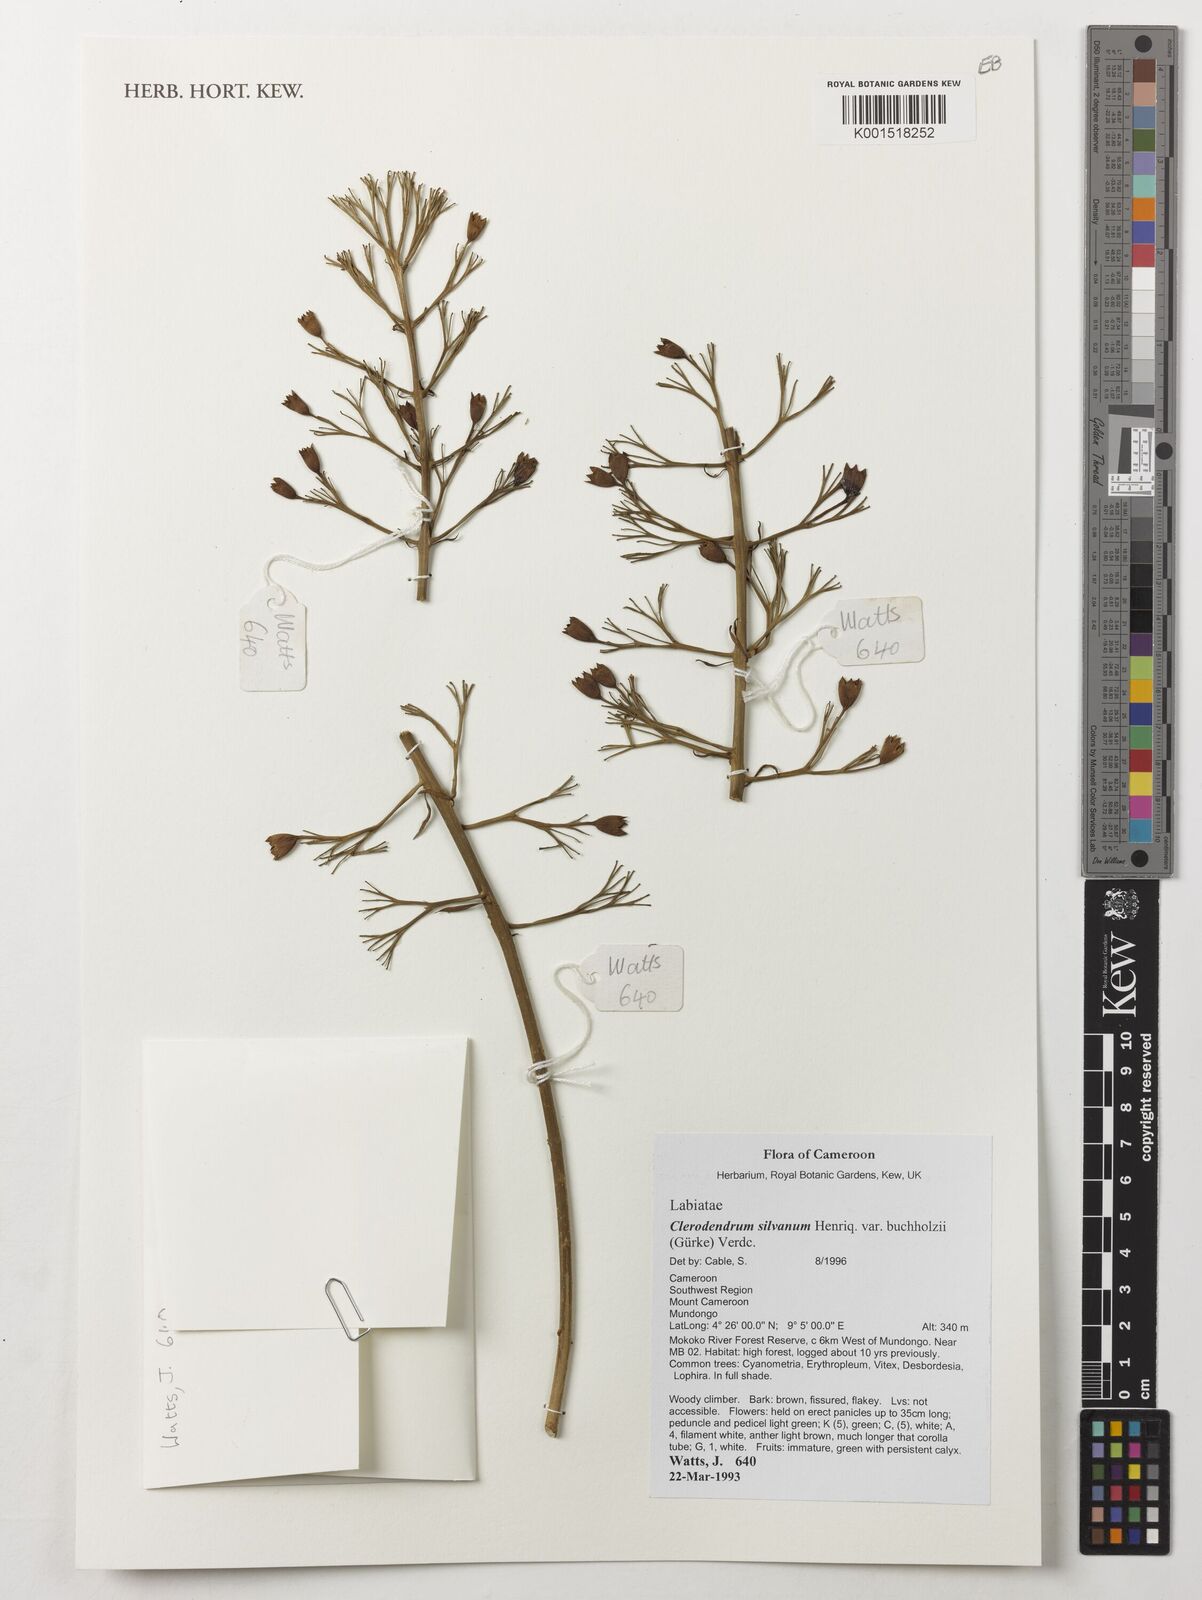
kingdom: Plantae
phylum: Tracheophyta
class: Magnoliopsida
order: Lamiales
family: Lamiaceae
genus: Clerodendrum
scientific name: Clerodendrum silvanum
